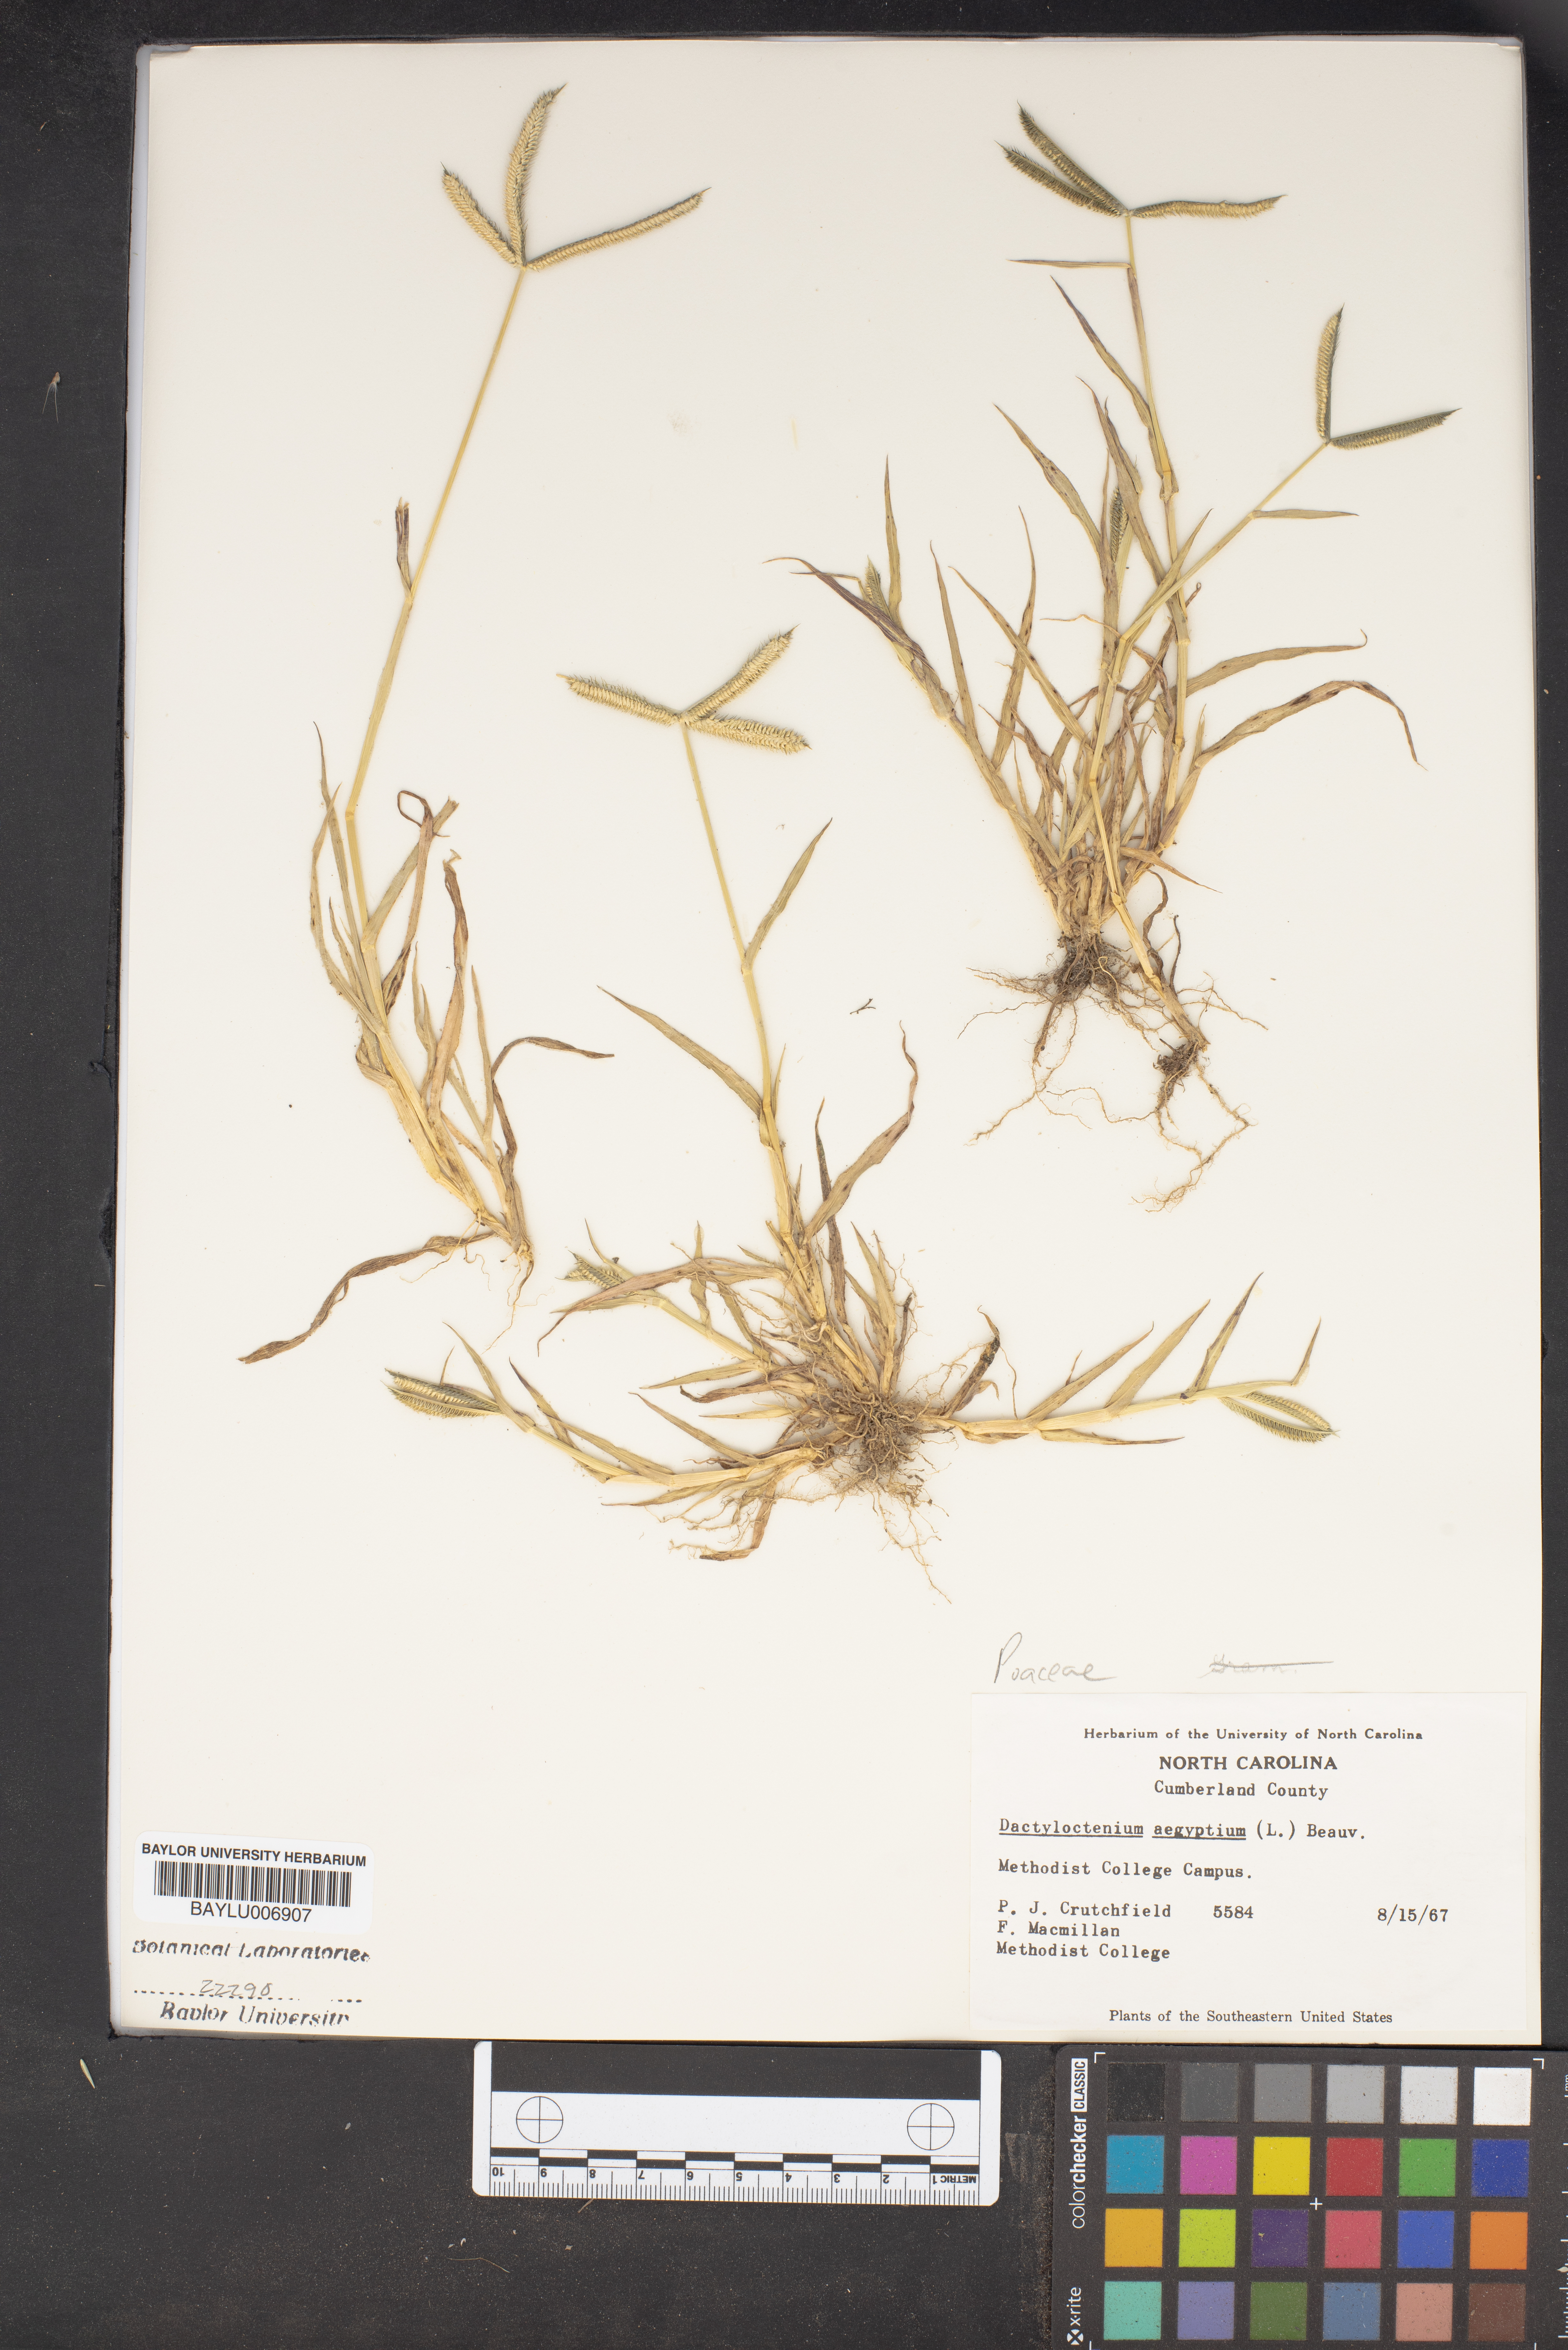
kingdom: Plantae
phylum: Tracheophyta
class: Liliopsida
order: Poales
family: Poaceae
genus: Dactyloctenium
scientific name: Dactyloctenium aegyptium
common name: Egyptian grass
